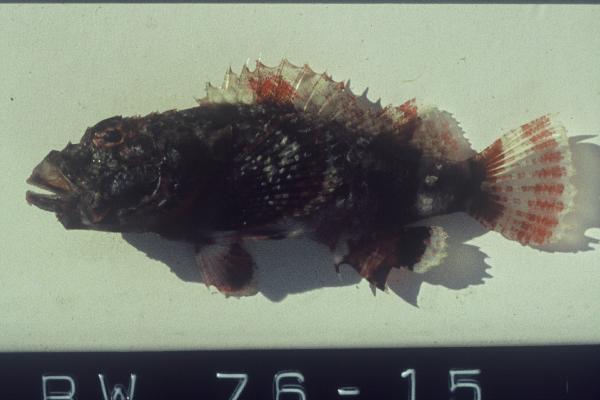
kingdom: Animalia
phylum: Chordata
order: Scorpaeniformes
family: Scorpaenidae
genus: Scorpaenopsis
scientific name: Scorpaenopsis oxycephala
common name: Smallscale scorpionfish
